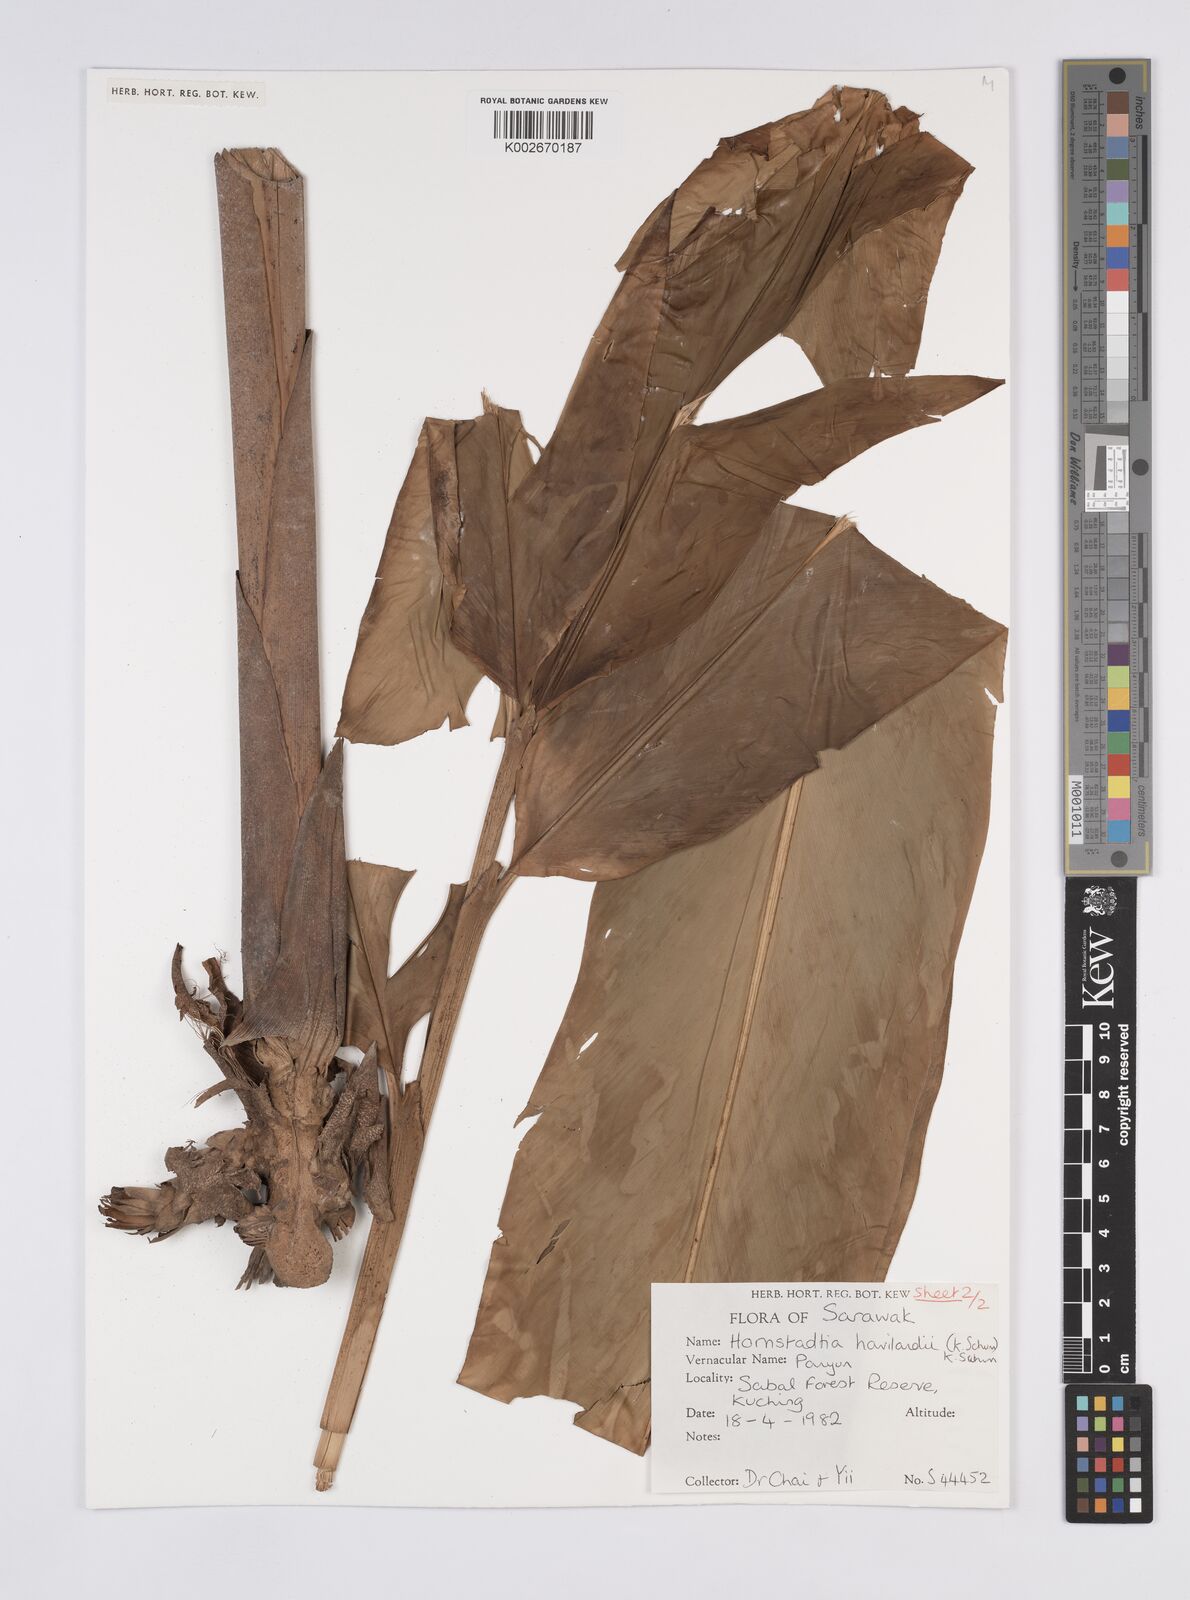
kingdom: Plantae
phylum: Tracheophyta
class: Liliopsida
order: Zingiberales
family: Zingiberaceae
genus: Hornstedtia
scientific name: Hornstedtia havilandii
